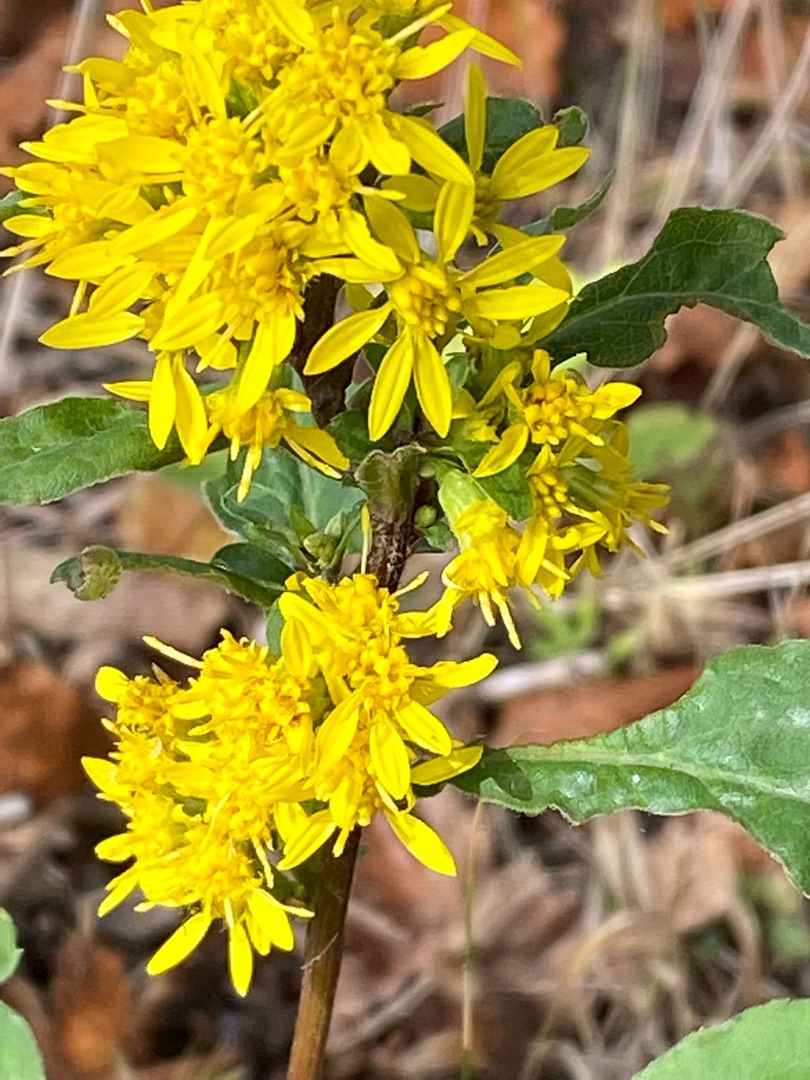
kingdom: Plantae
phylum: Tracheophyta
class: Magnoliopsida
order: Asterales
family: Asteraceae
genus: Solidago
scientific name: Solidago virgaurea
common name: Almindelig gyldenris
